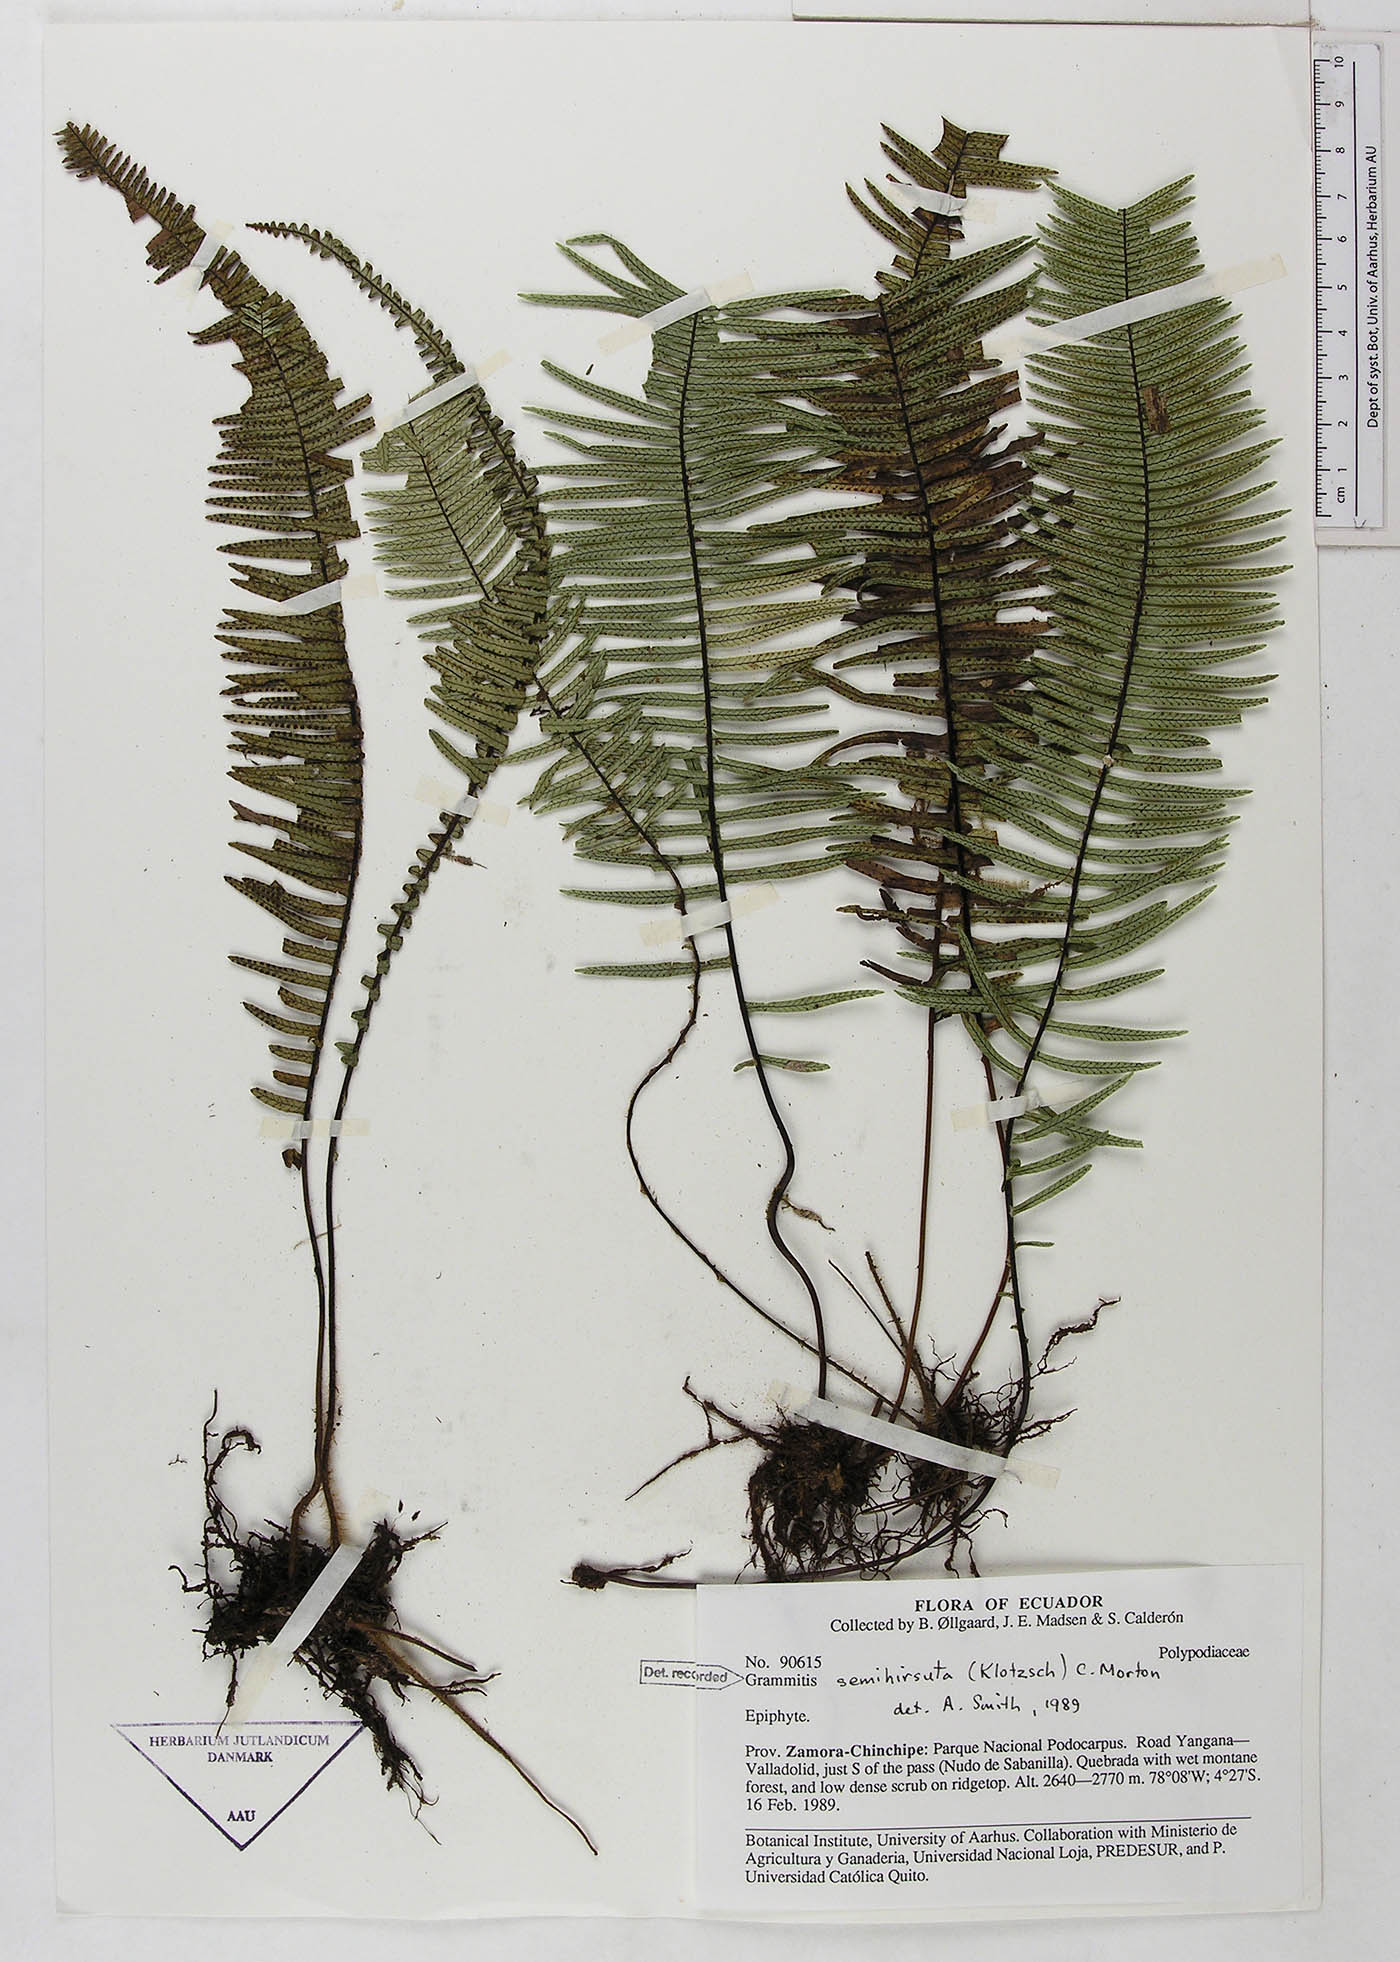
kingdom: Plantae
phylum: Tracheophyta
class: Polypodiopsida
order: Polypodiales
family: Polypodiaceae
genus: Mycopteris
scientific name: Mycopteris semihirsuta
